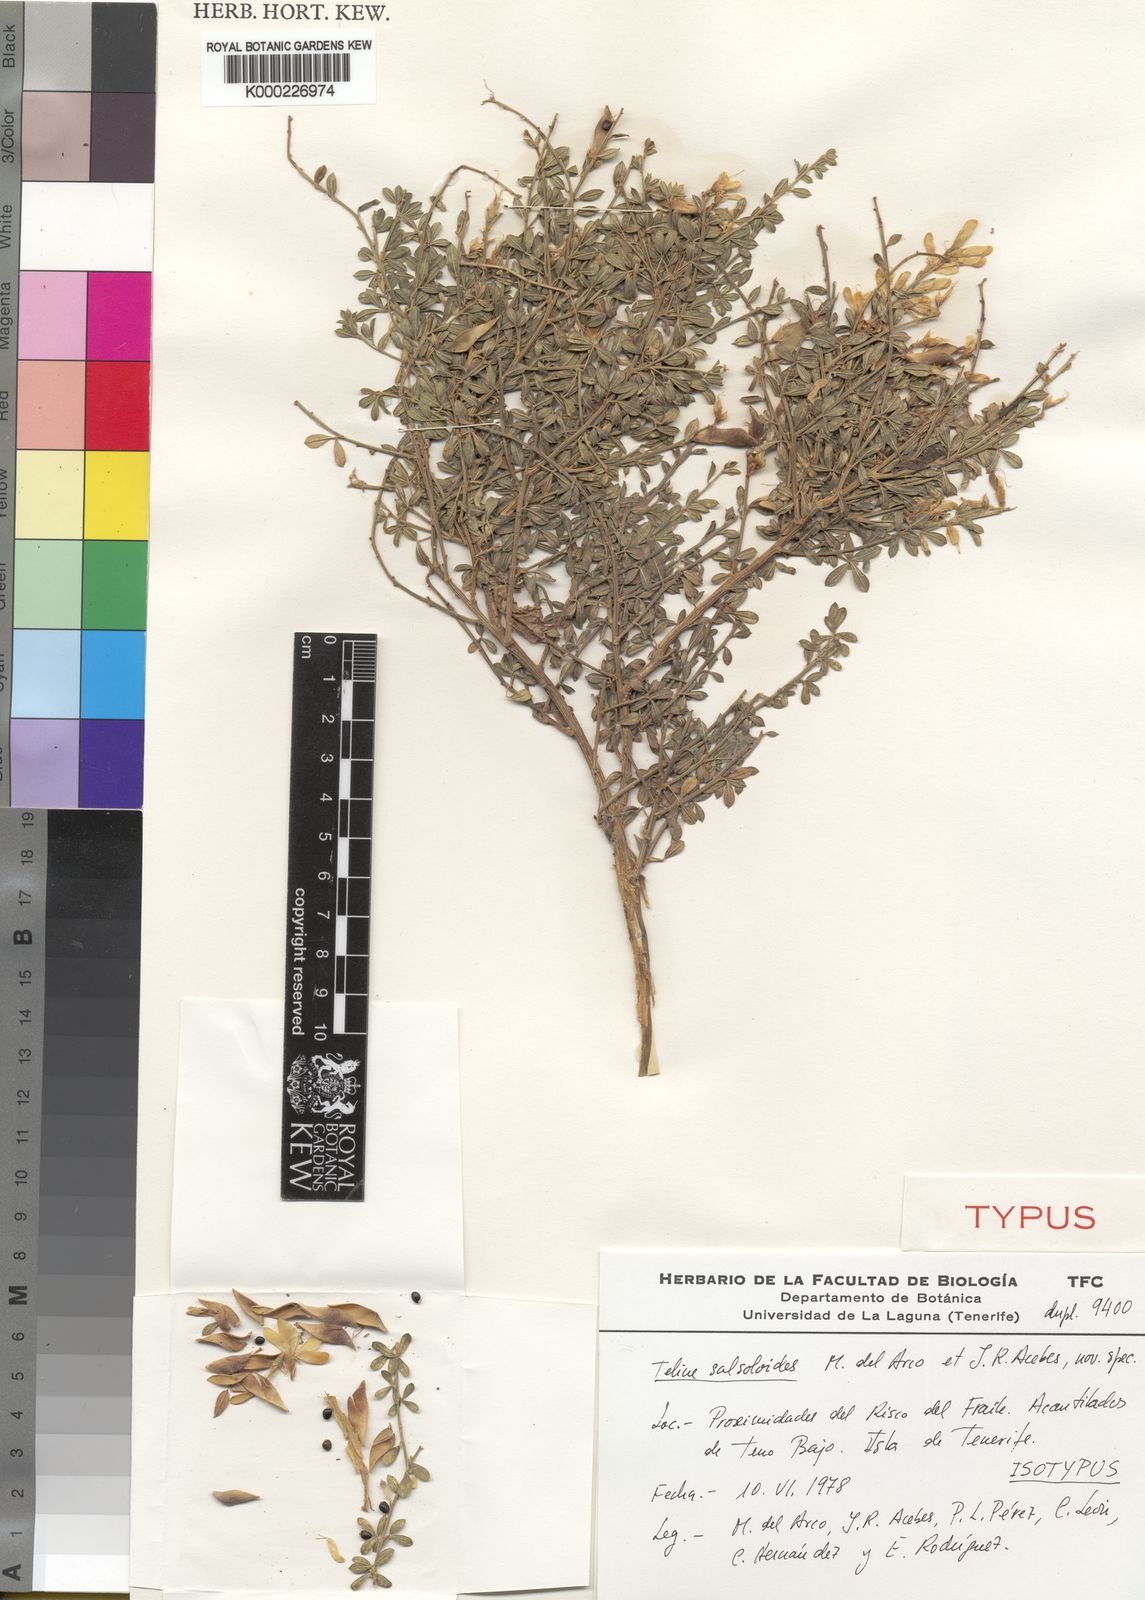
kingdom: Plantae
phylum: Tracheophyta
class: Magnoliopsida
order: Fabales
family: Fabaceae
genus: Genista
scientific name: Genista Teline salsoloides del
